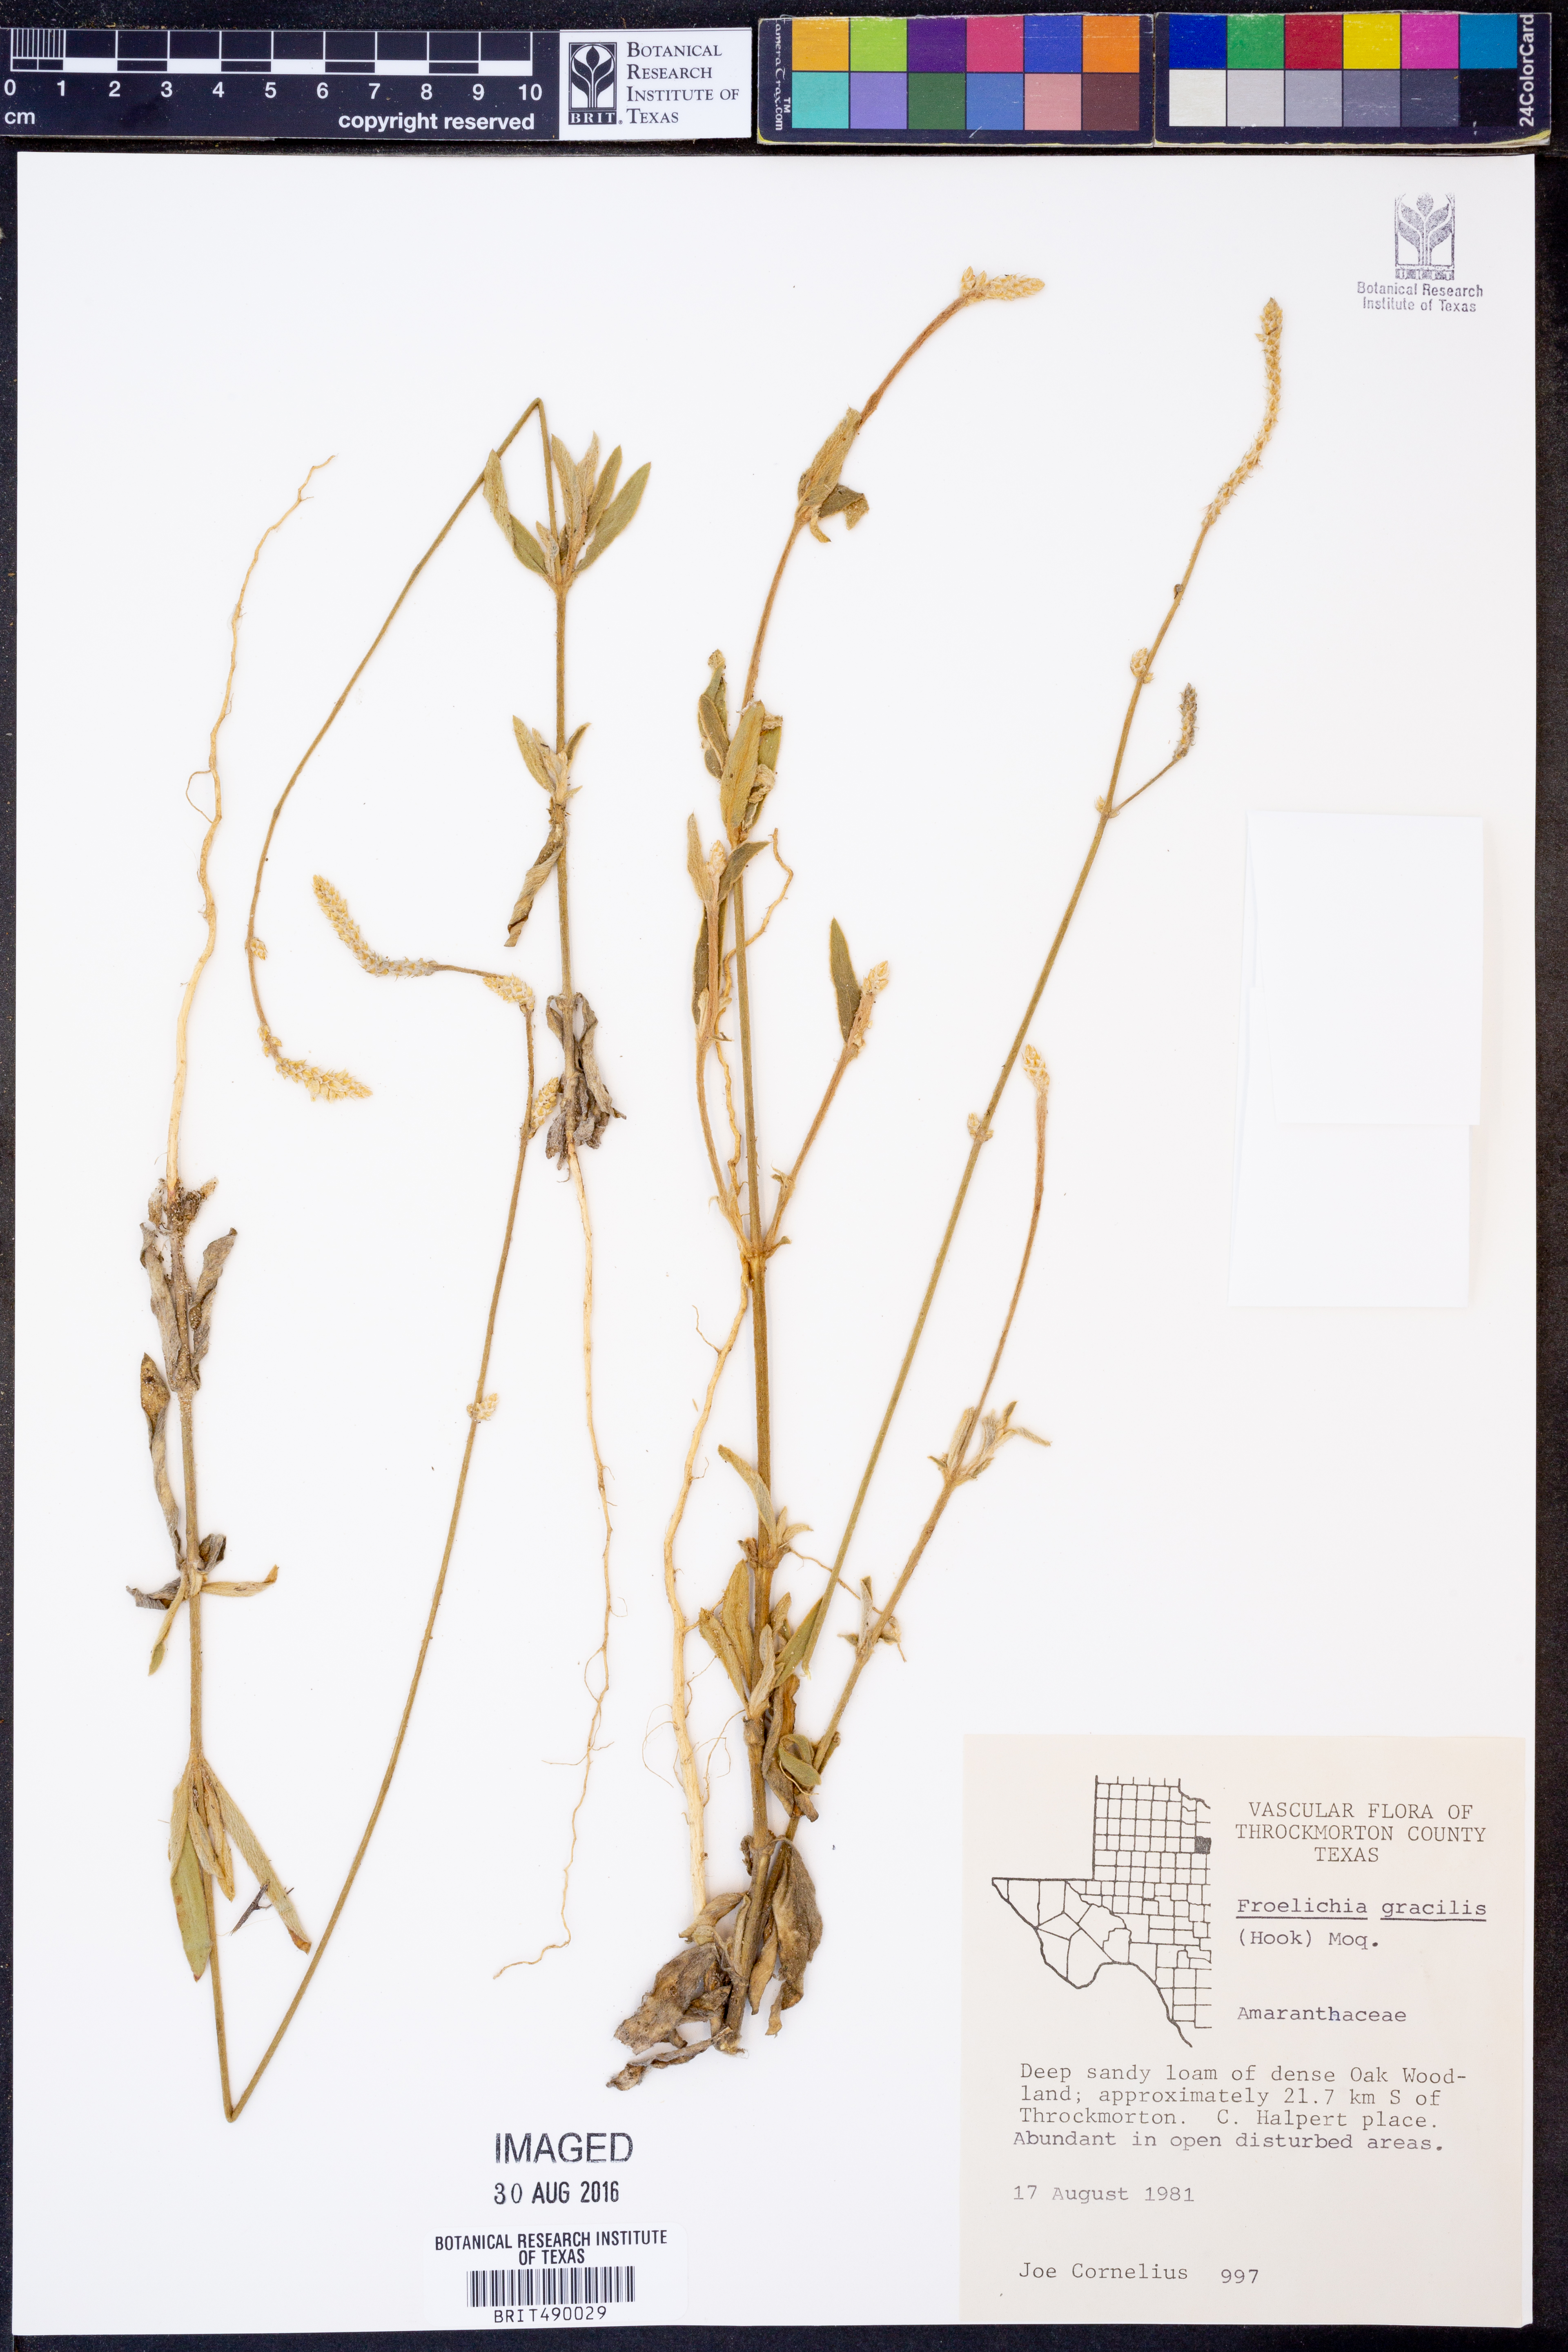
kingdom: Plantae
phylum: Tracheophyta
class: Magnoliopsida
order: Caryophyllales
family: Amaranthaceae
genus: Froelichia
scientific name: Froelichia gracilis
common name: Slender cottonweed
